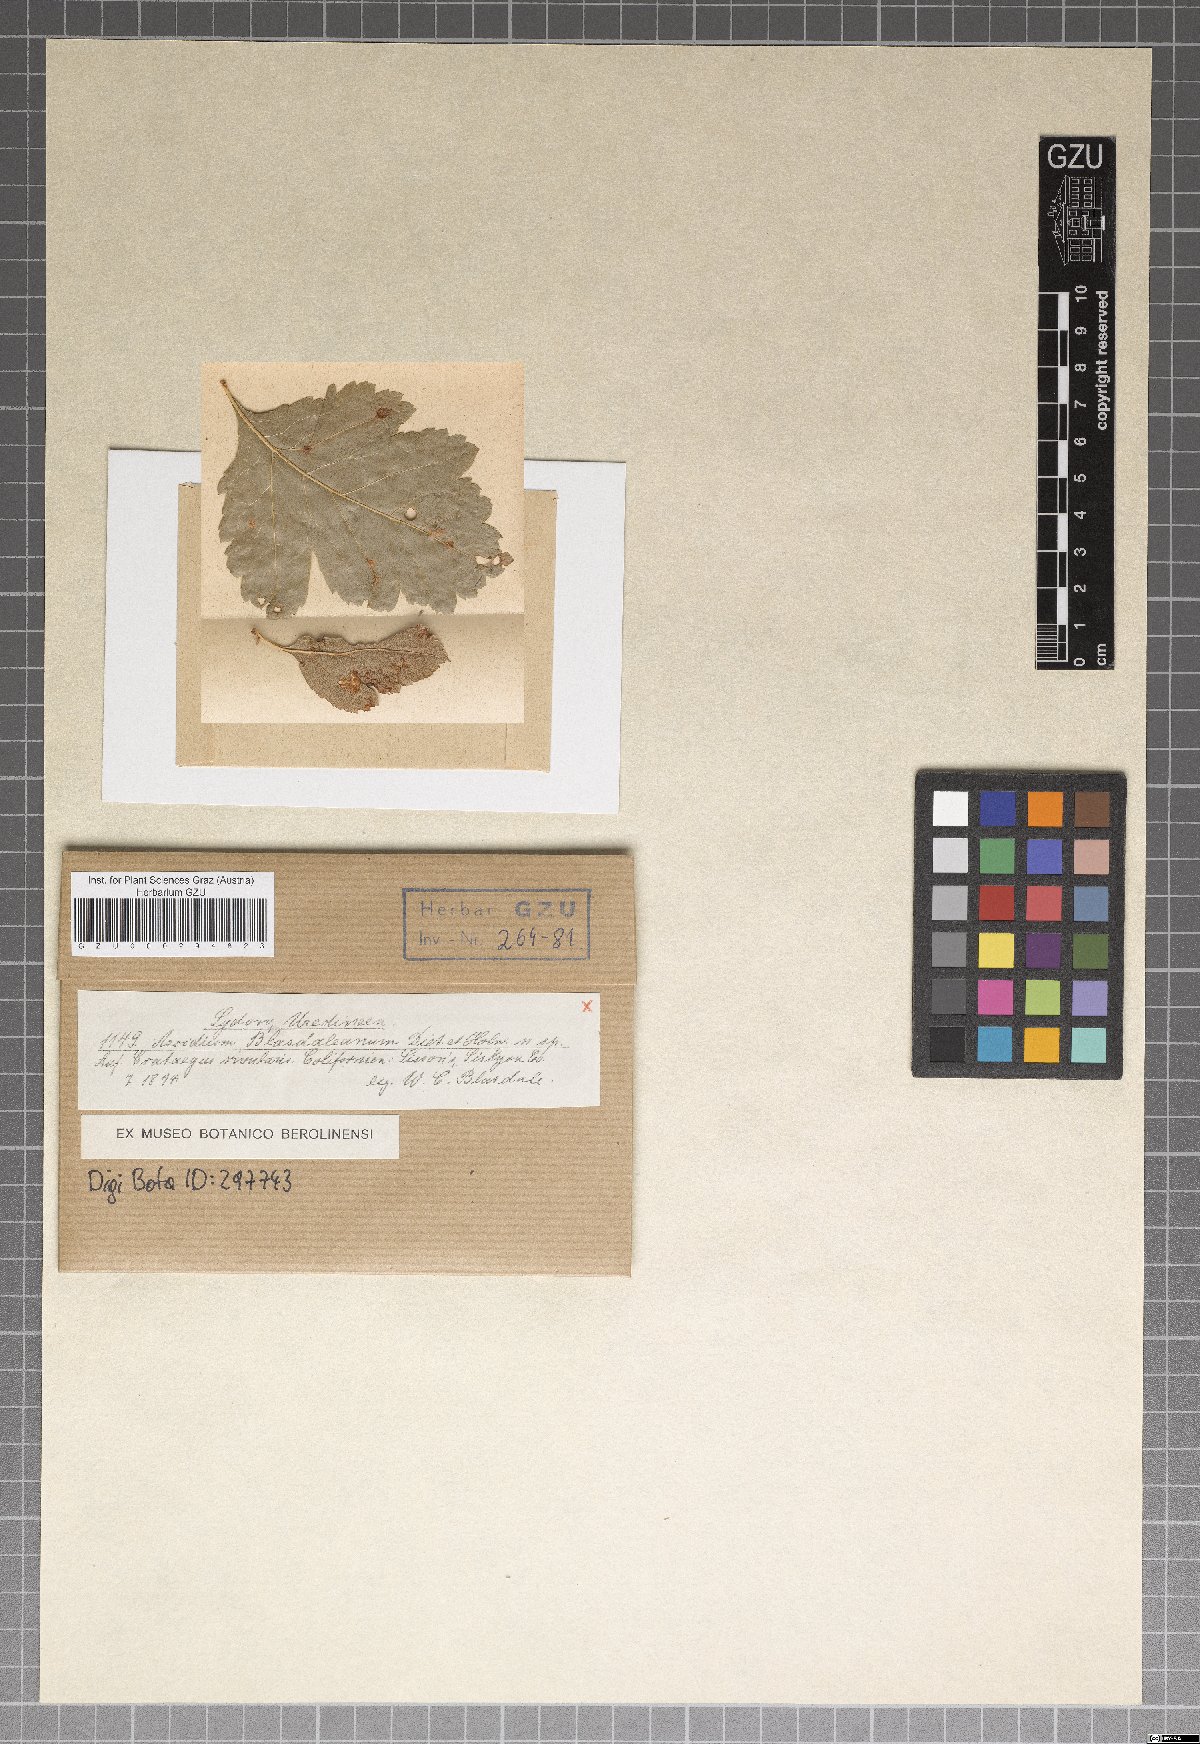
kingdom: Fungi
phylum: Basidiomycota
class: Pucciniomycetes
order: Pucciniales
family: Pucciniaceae
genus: Gymnotelium
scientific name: Gymnotelium blasdaleanum
